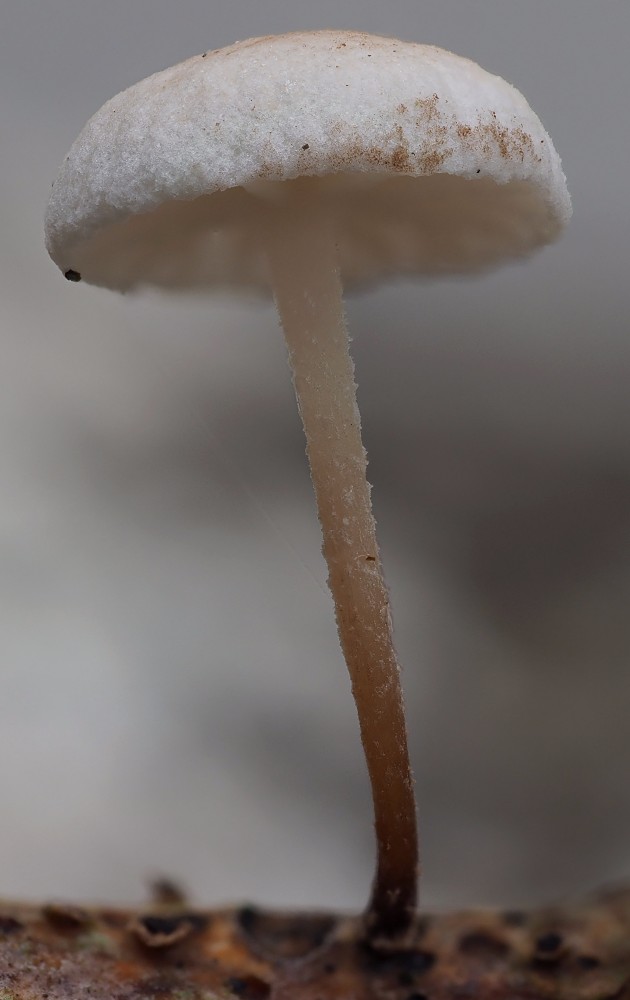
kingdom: Fungi
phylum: Basidiomycota
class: Agaricomycetes
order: Agaricales
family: Omphalotaceae
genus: Collybiopsis
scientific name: Collybiopsis ramealis
